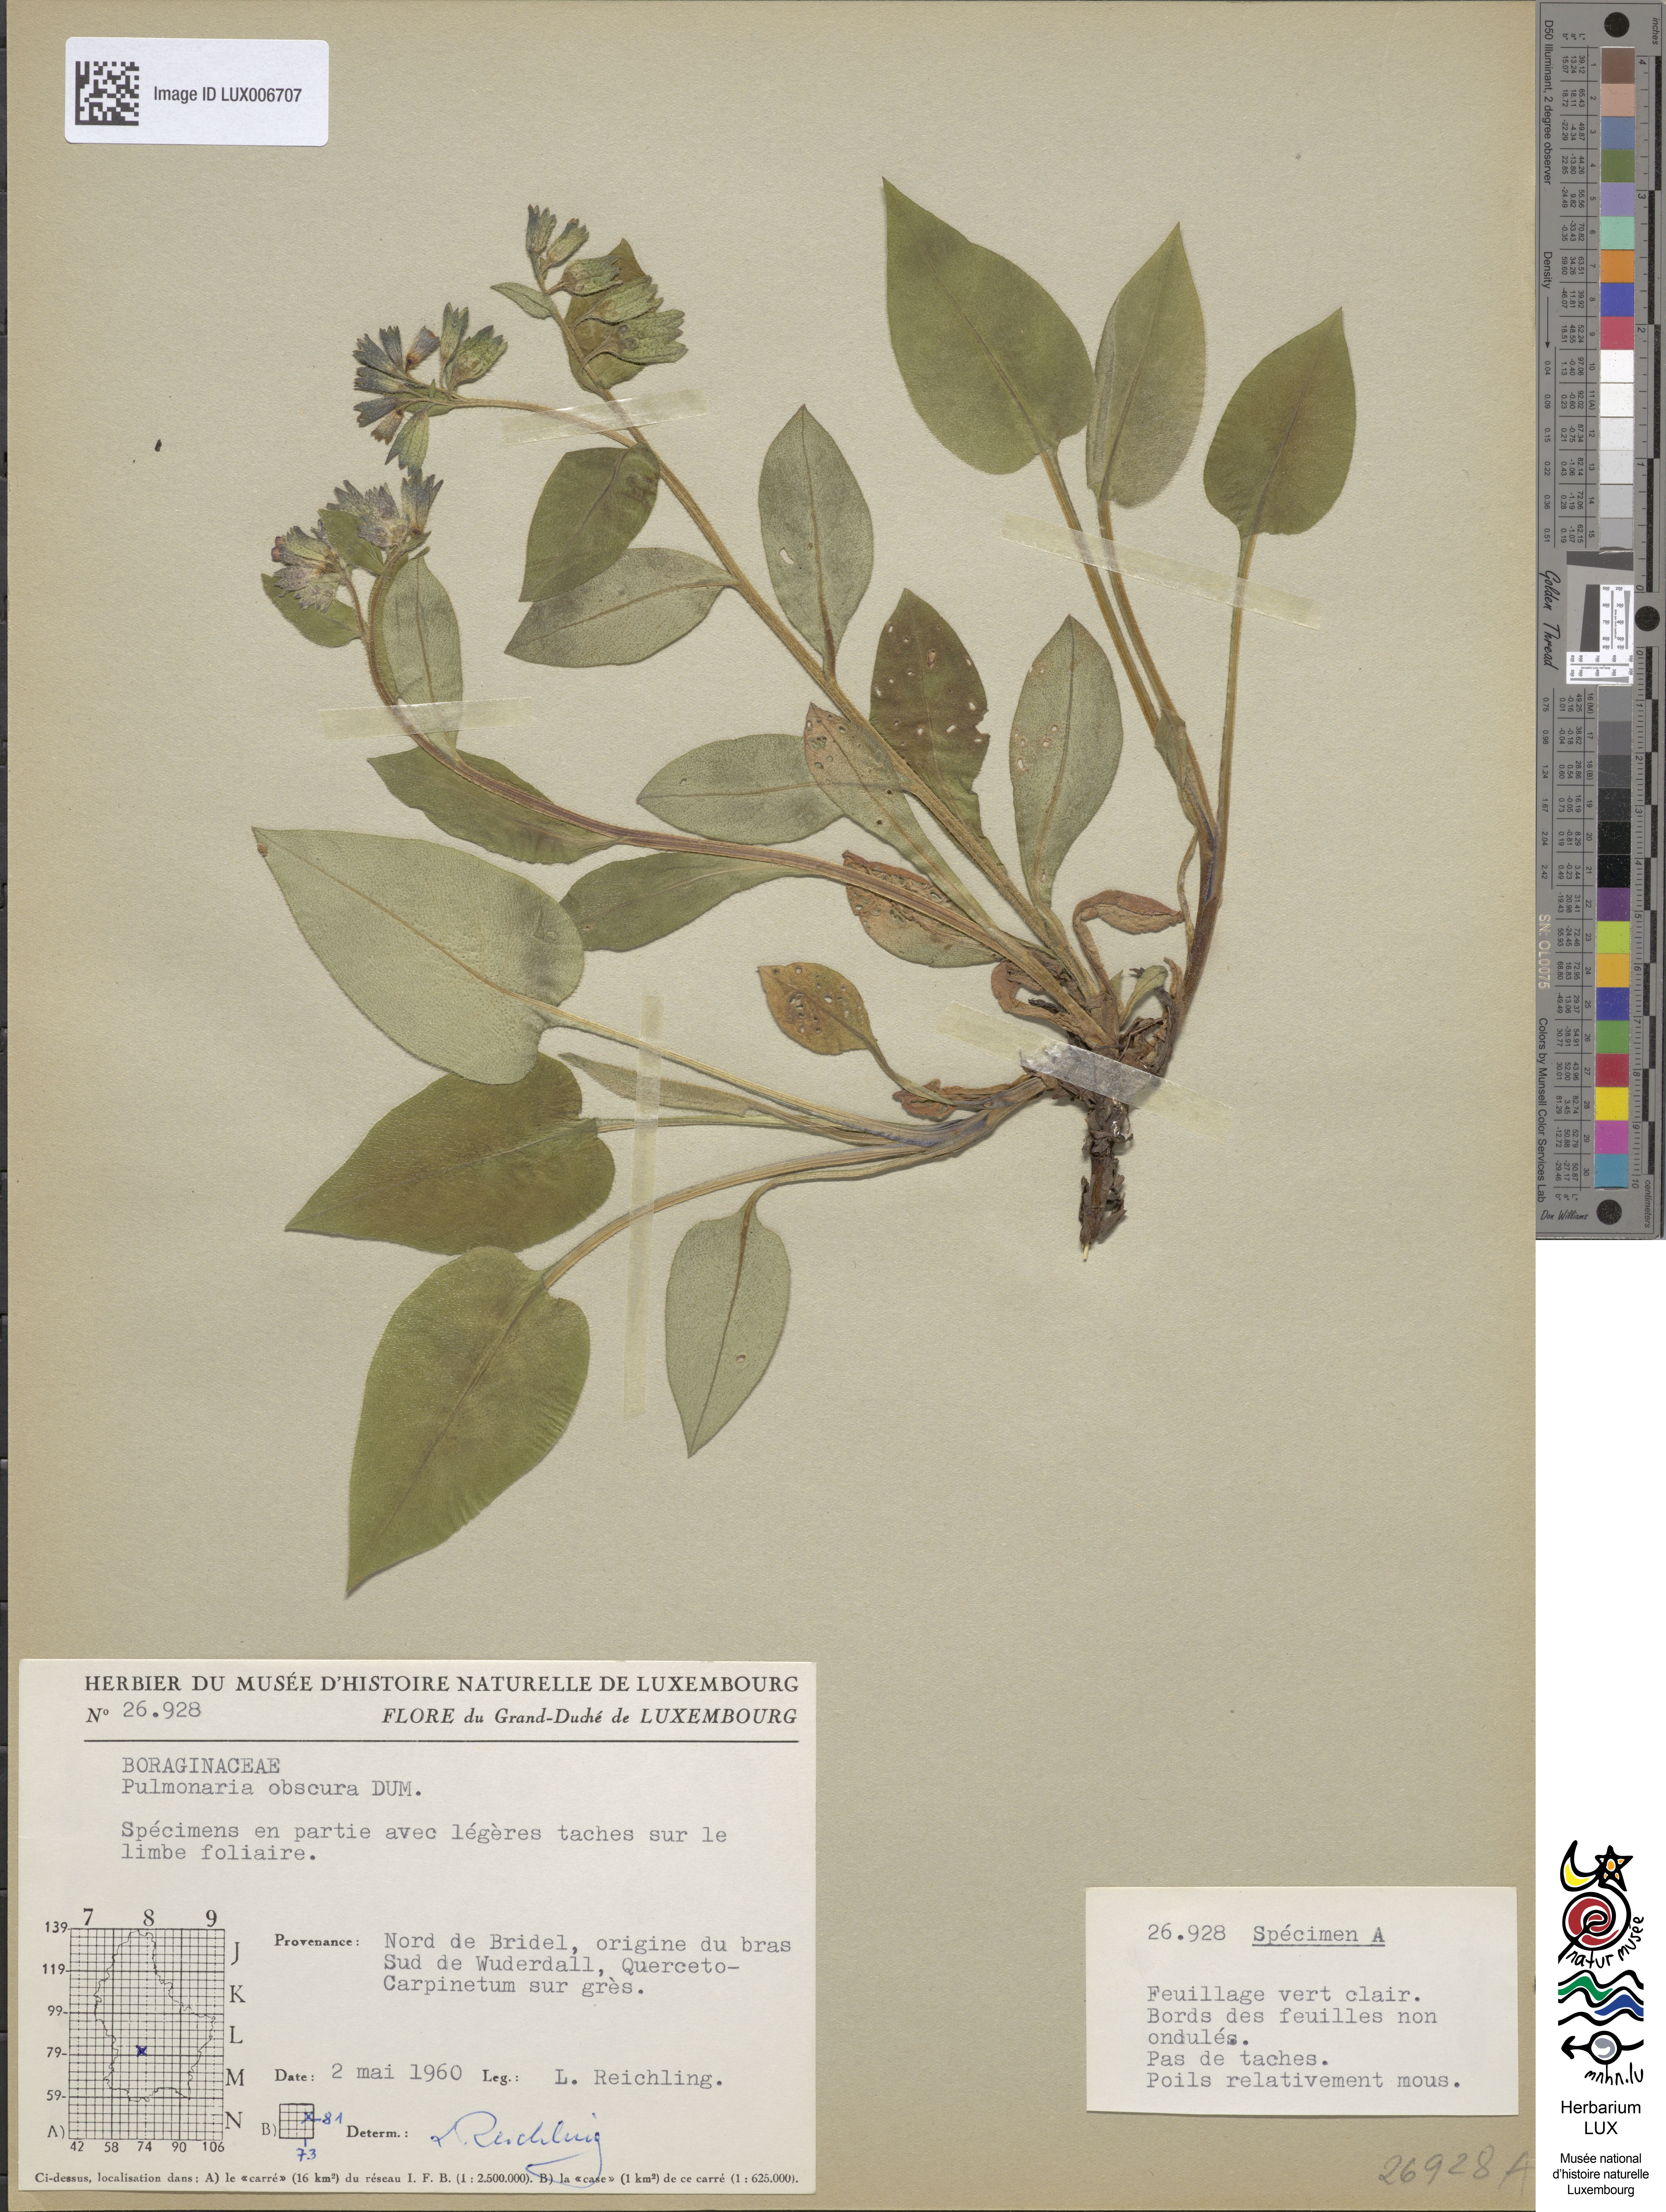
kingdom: Plantae
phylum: Tracheophyta
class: Magnoliopsida
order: Boraginales
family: Boraginaceae
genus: Pulmonaria
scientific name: Pulmonaria obscura
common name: Suffolk lungwort
